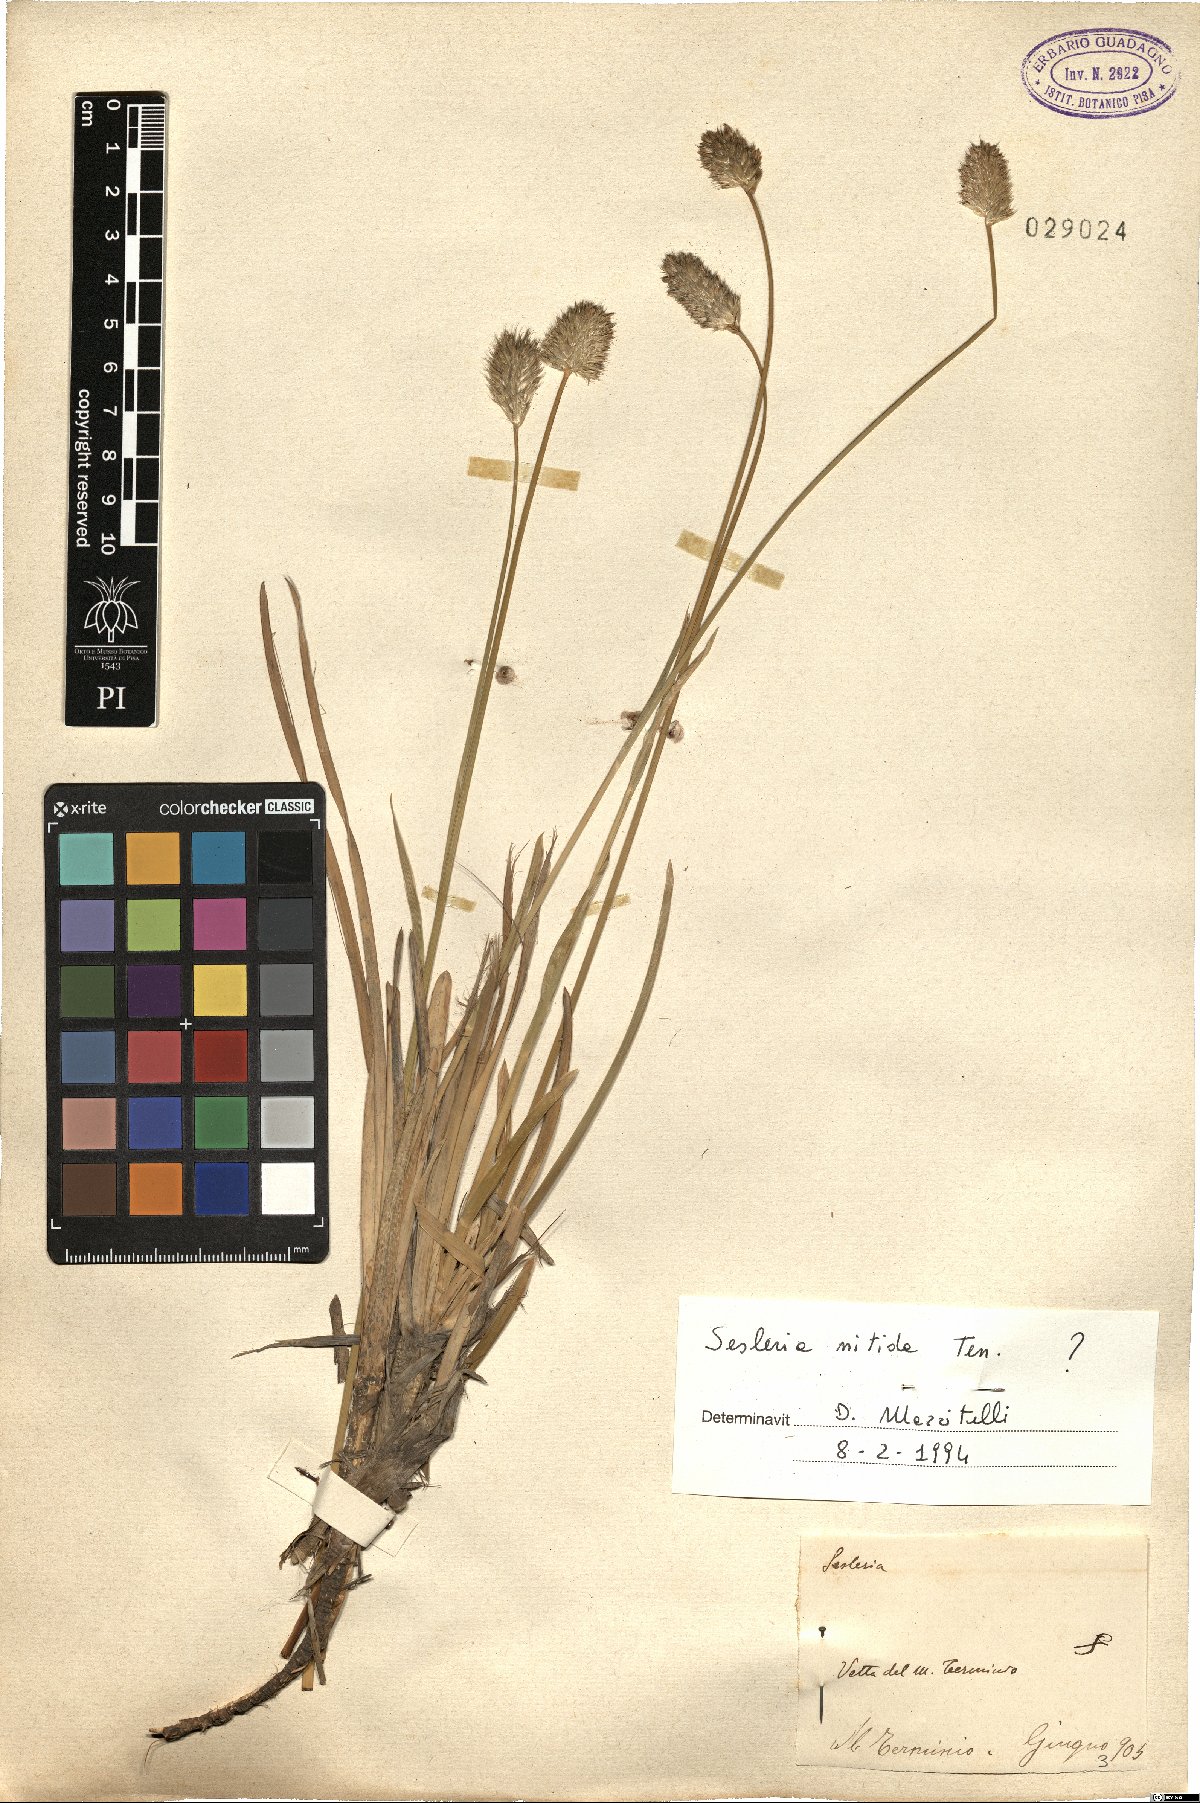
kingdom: Plantae
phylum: Tracheophyta
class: Liliopsida
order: Poales
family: Poaceae
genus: Sesleria
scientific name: Sesleria nitida
